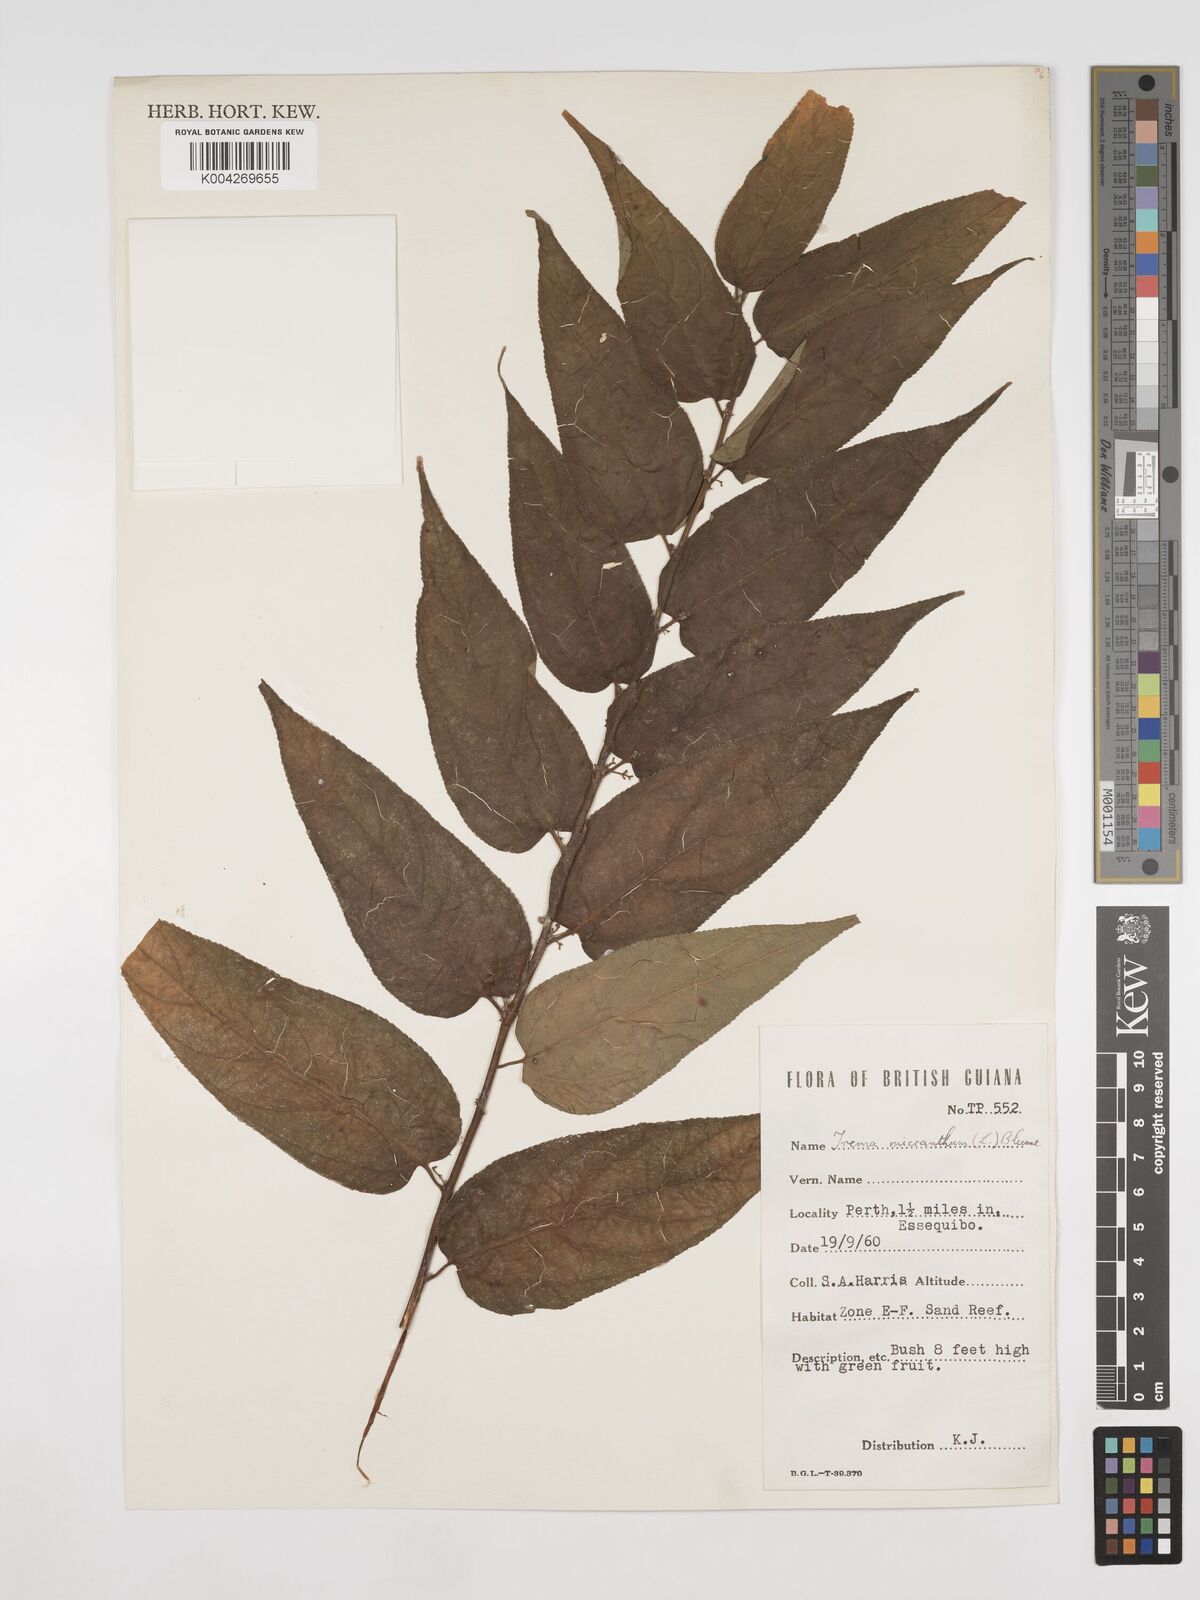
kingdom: Plantae
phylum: Tracheophyta
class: Magnoliopsida
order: Rosales
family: Cannabaceae
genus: Trema
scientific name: Trema micranthum
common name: Jamaican nettletree
